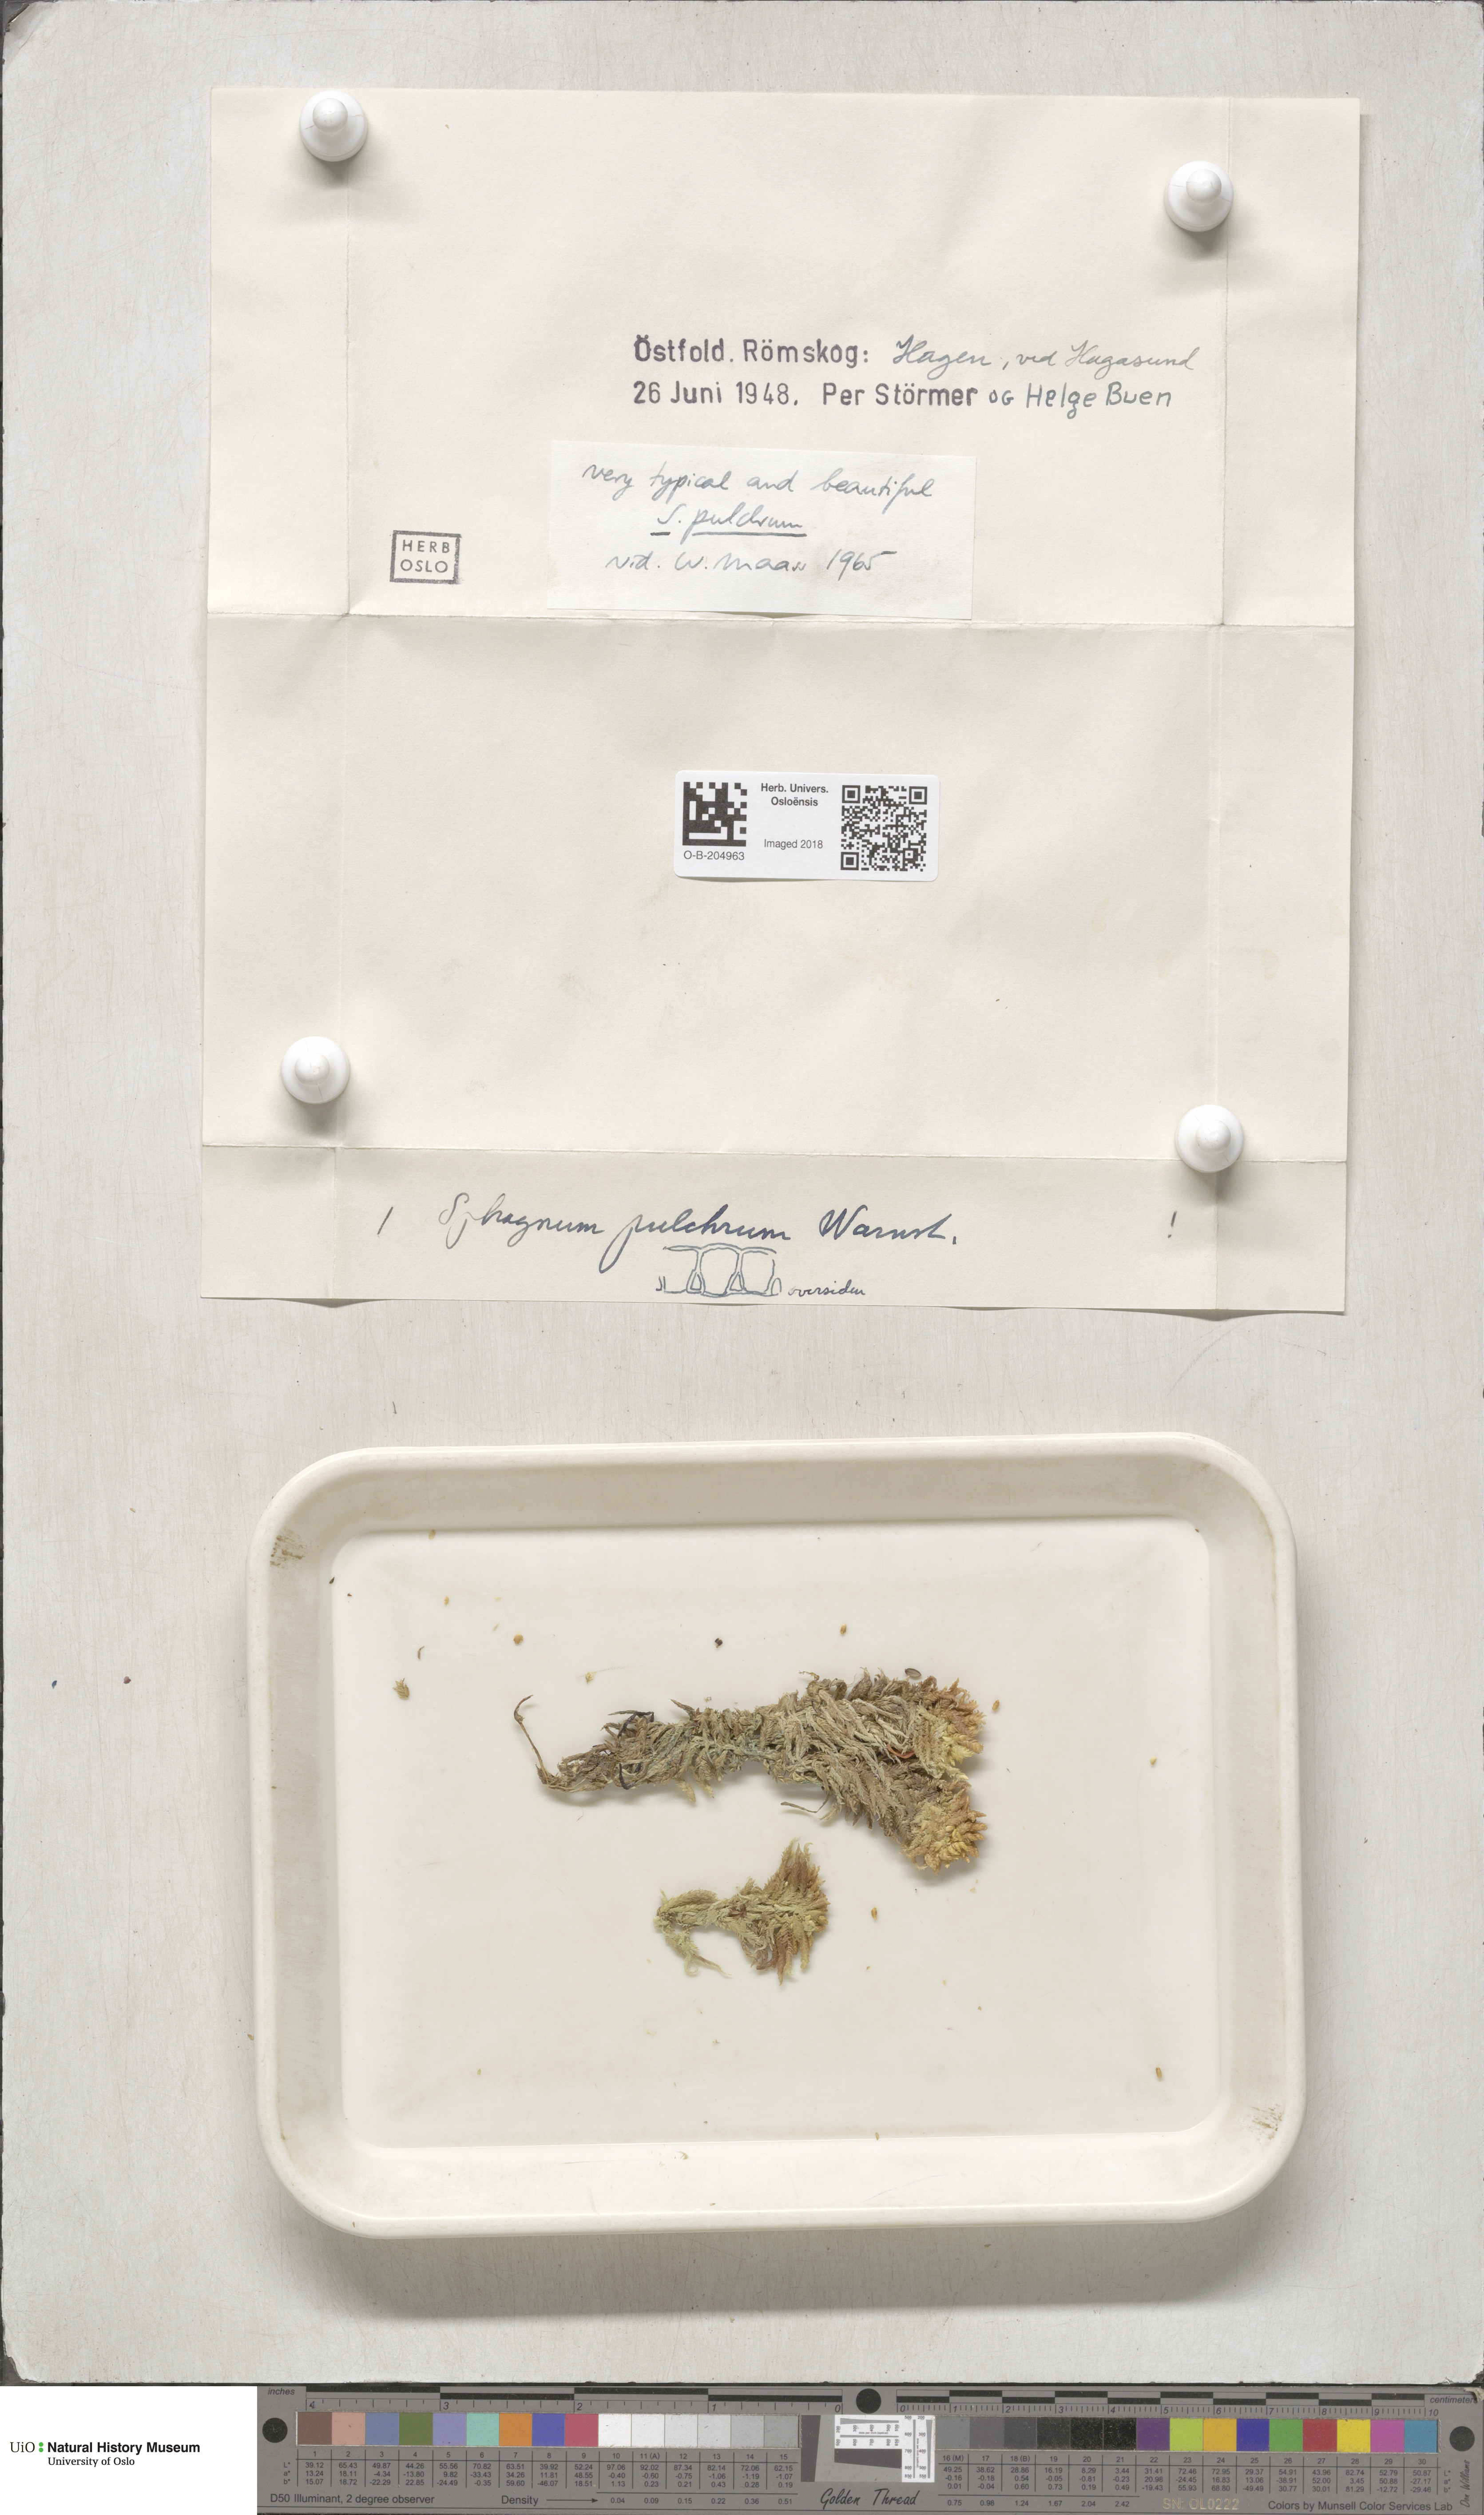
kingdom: Plantae
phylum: Bryophyta
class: Sphagnopsida
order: Sphagnales
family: Sphagnaceae
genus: Sphagnum
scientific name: Sphagnum pulchrum
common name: Beautiful peat moss
